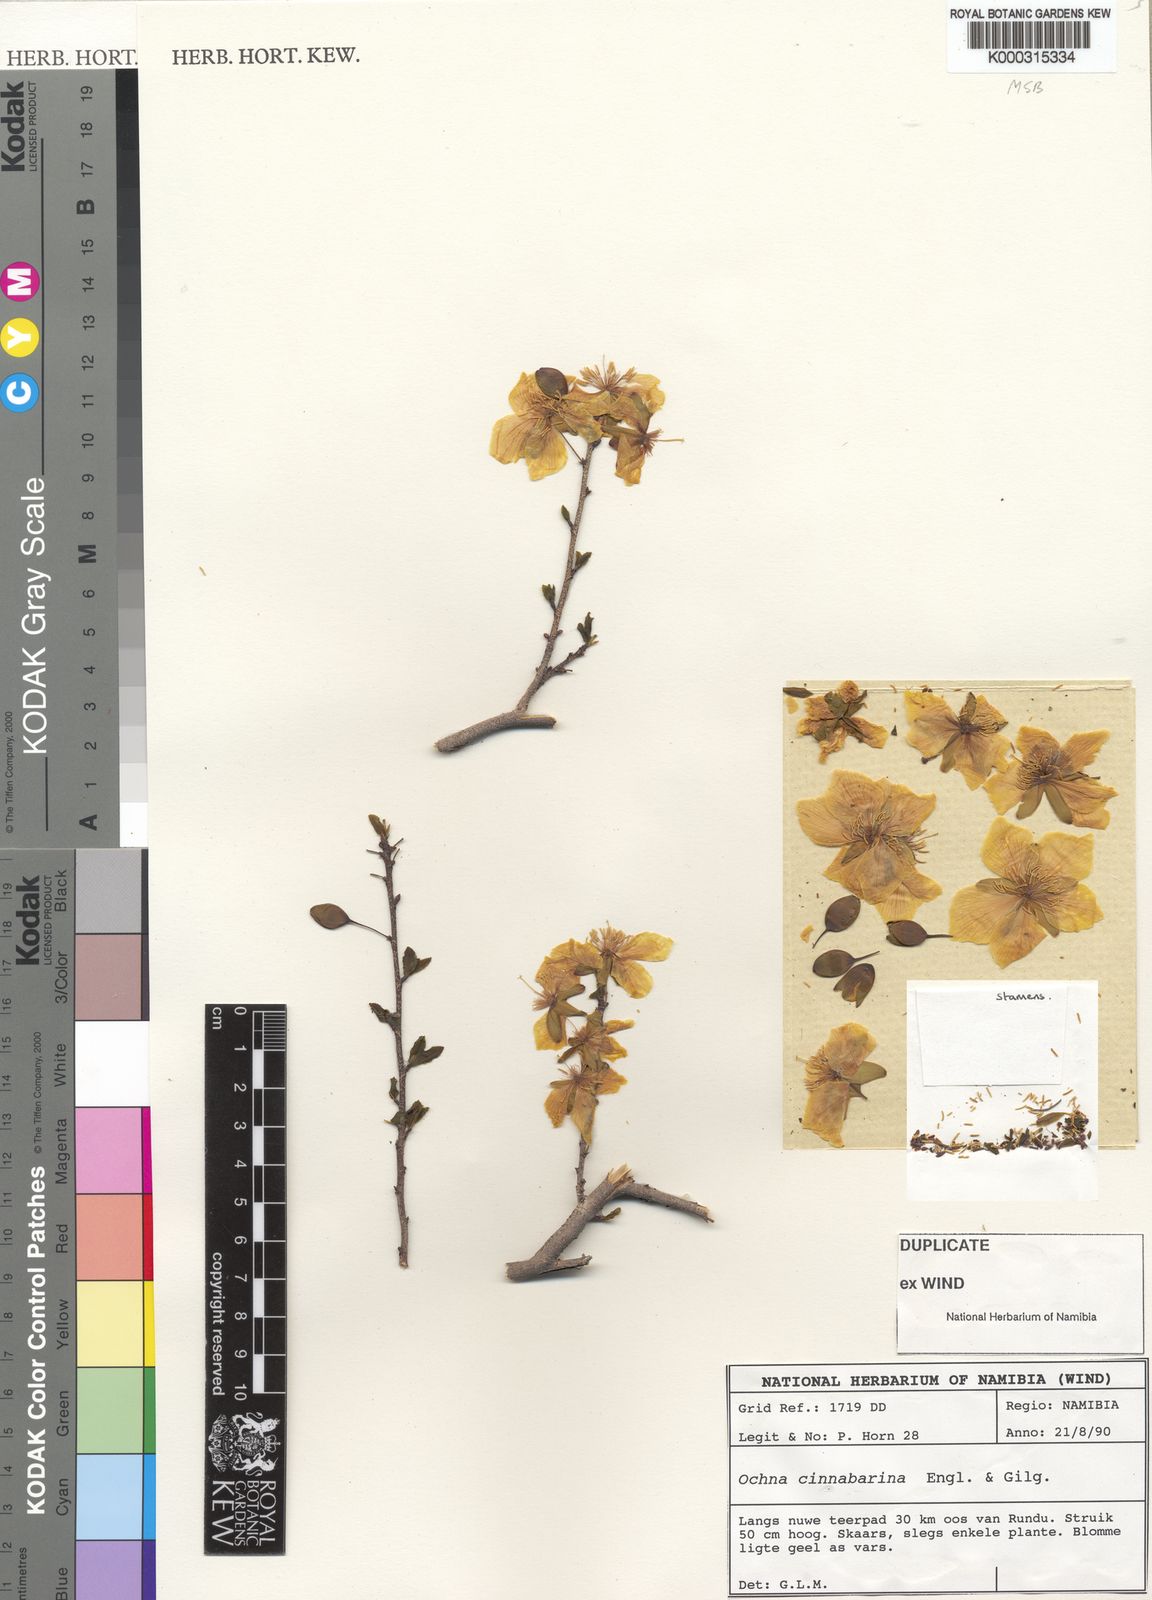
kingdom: Plantae
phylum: Tracheophyta
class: Magnoliopsida
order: Malpighiales
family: Ochnaceae
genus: Ochna
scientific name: Ochna cinnabarina
